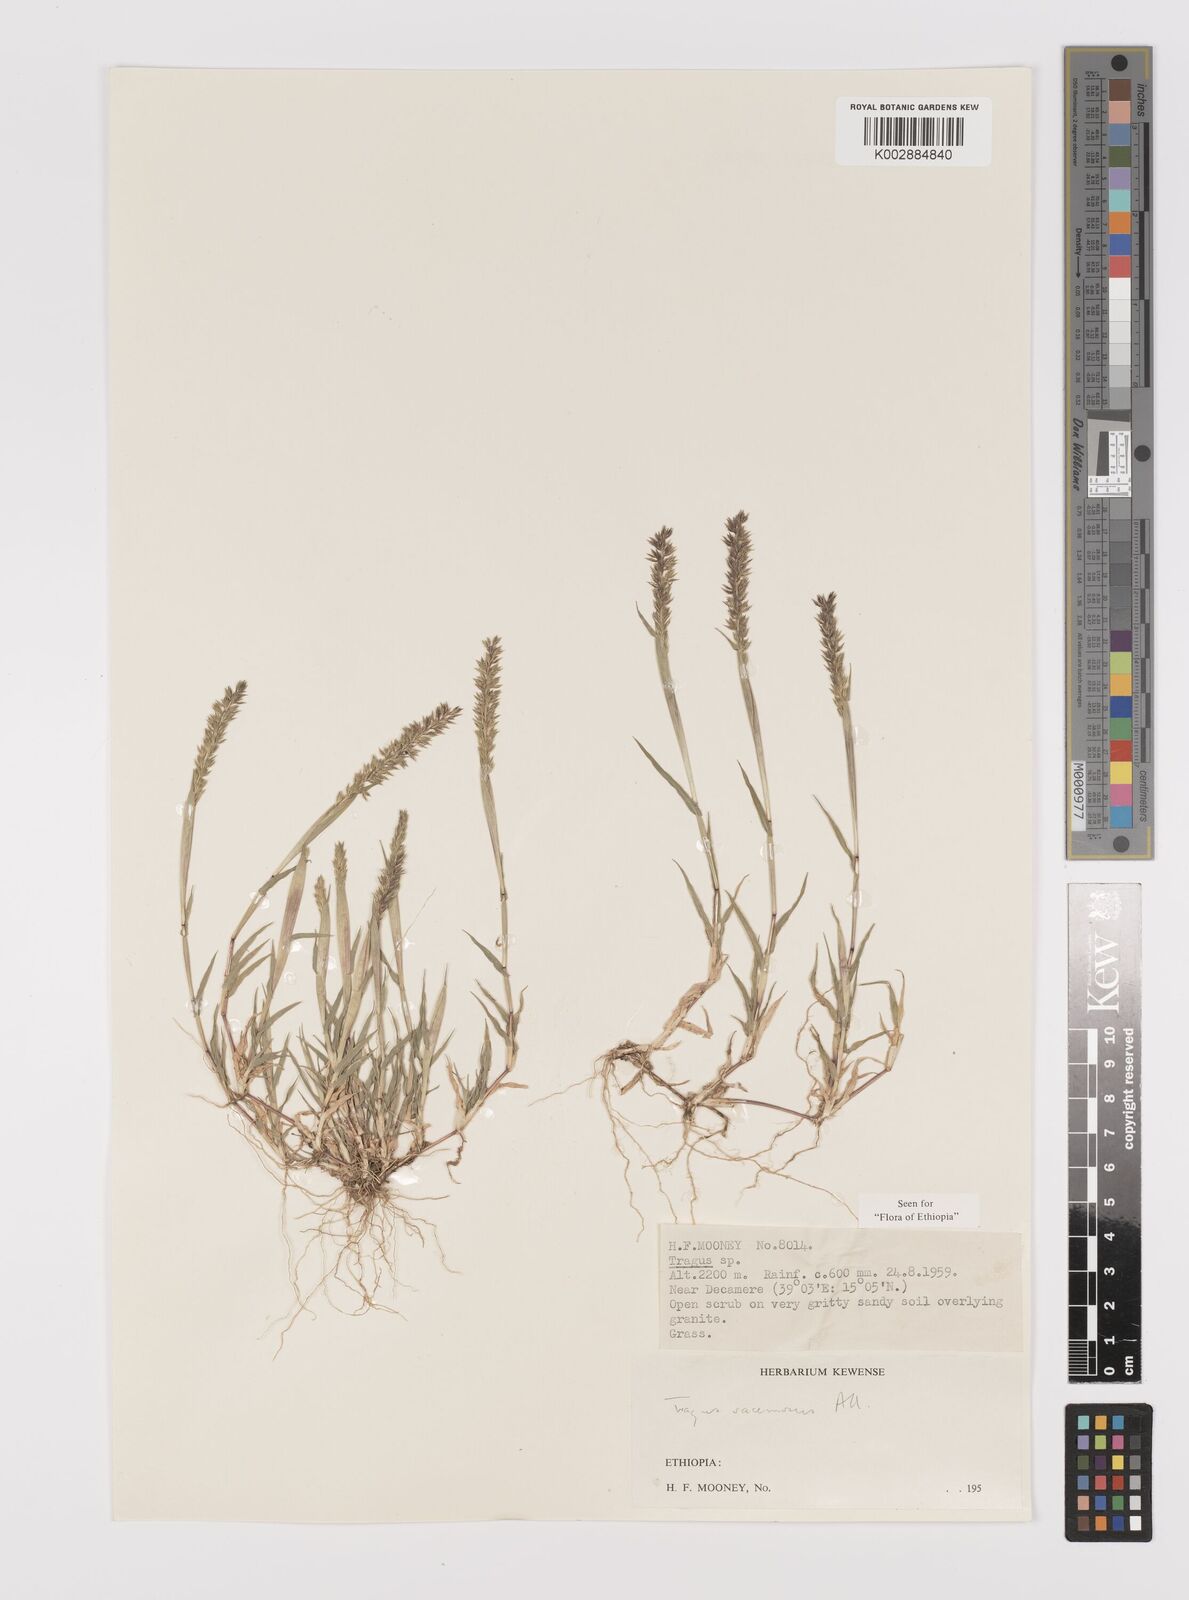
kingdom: Plantae
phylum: Tracheophyta
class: Liliopsida
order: Poales
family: Poaceae
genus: Tragus
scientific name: Tragus racemosus
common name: European bur-grass
